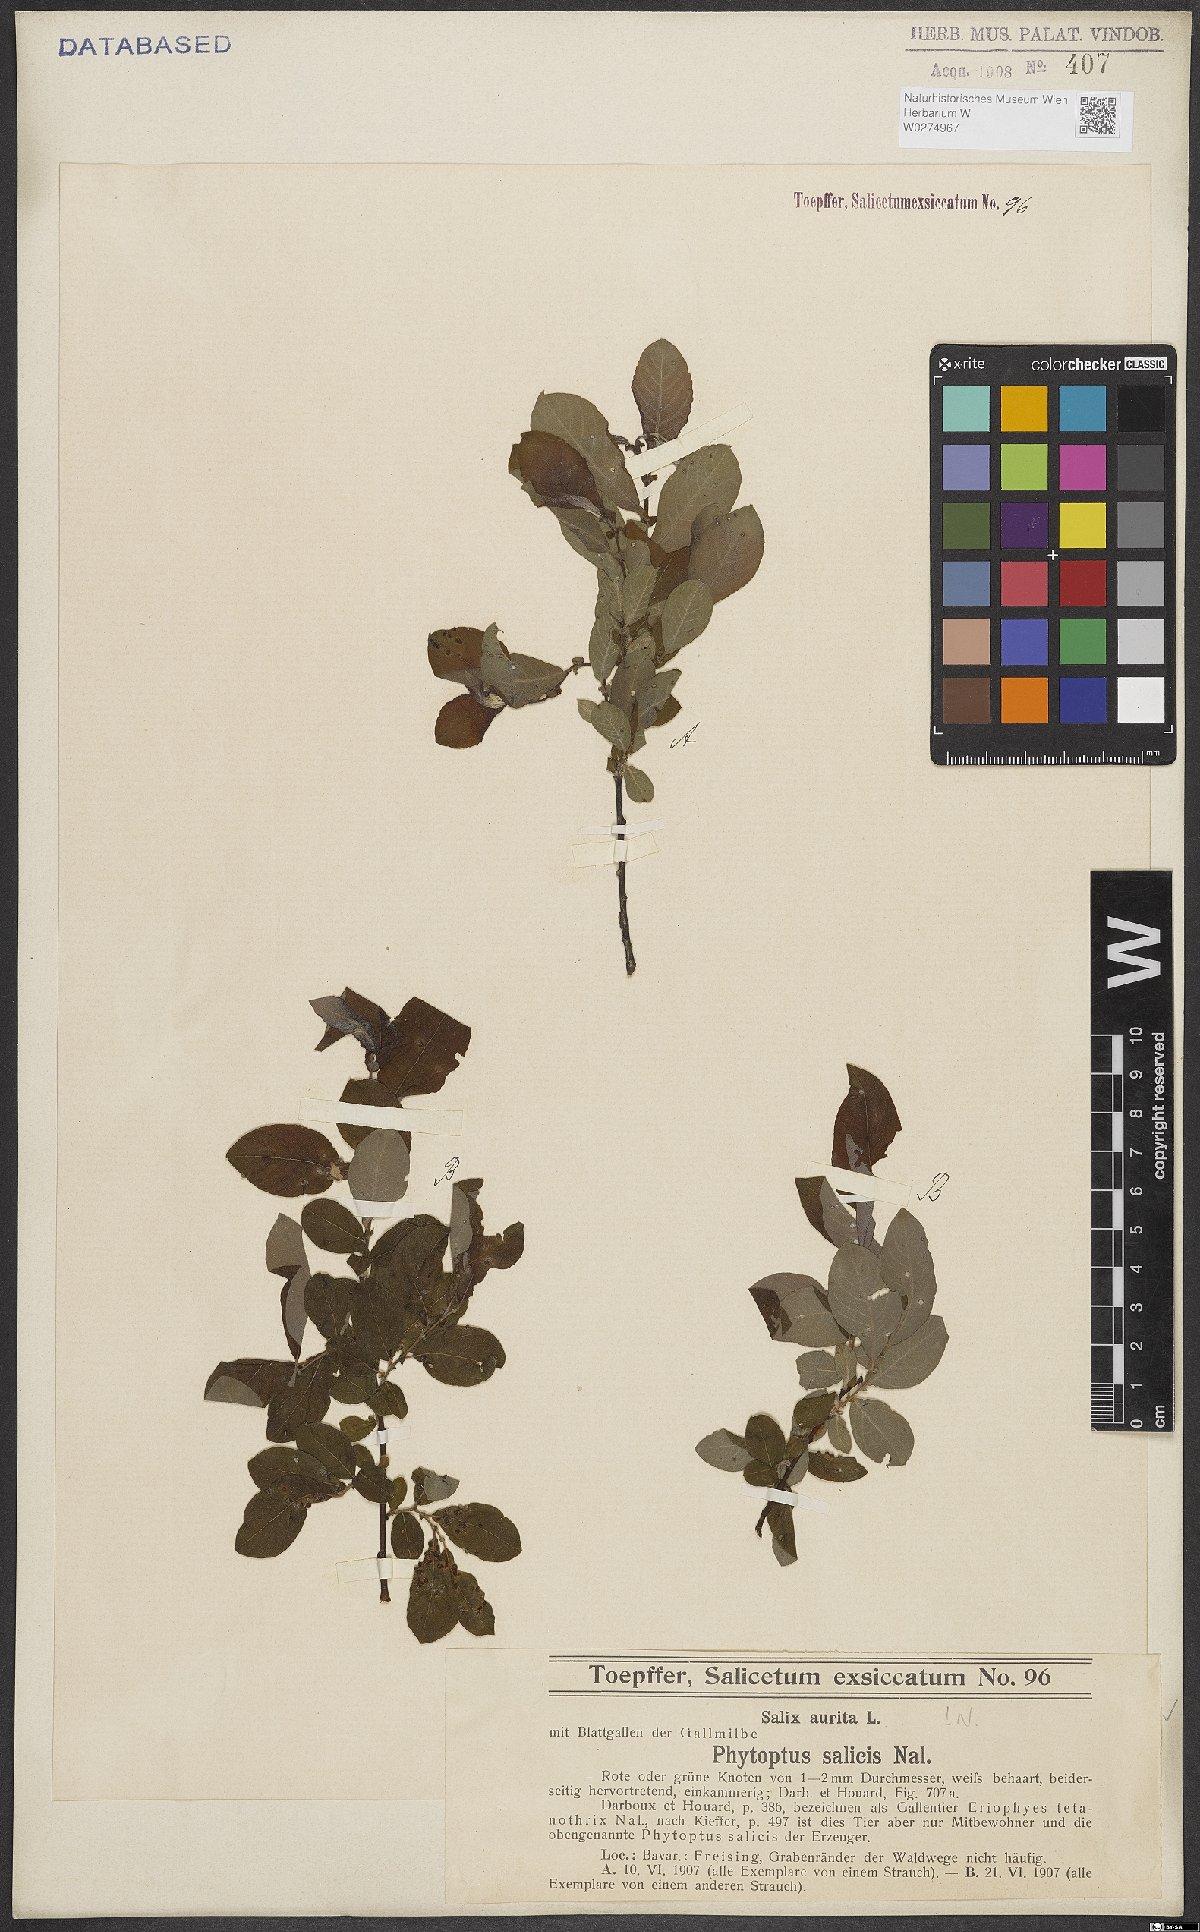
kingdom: Plantae
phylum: Tracheophyta
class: Magnoliopsida
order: Malpighiales
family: Salicaceae
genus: Salix
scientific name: Salix aurita
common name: Eared willow
